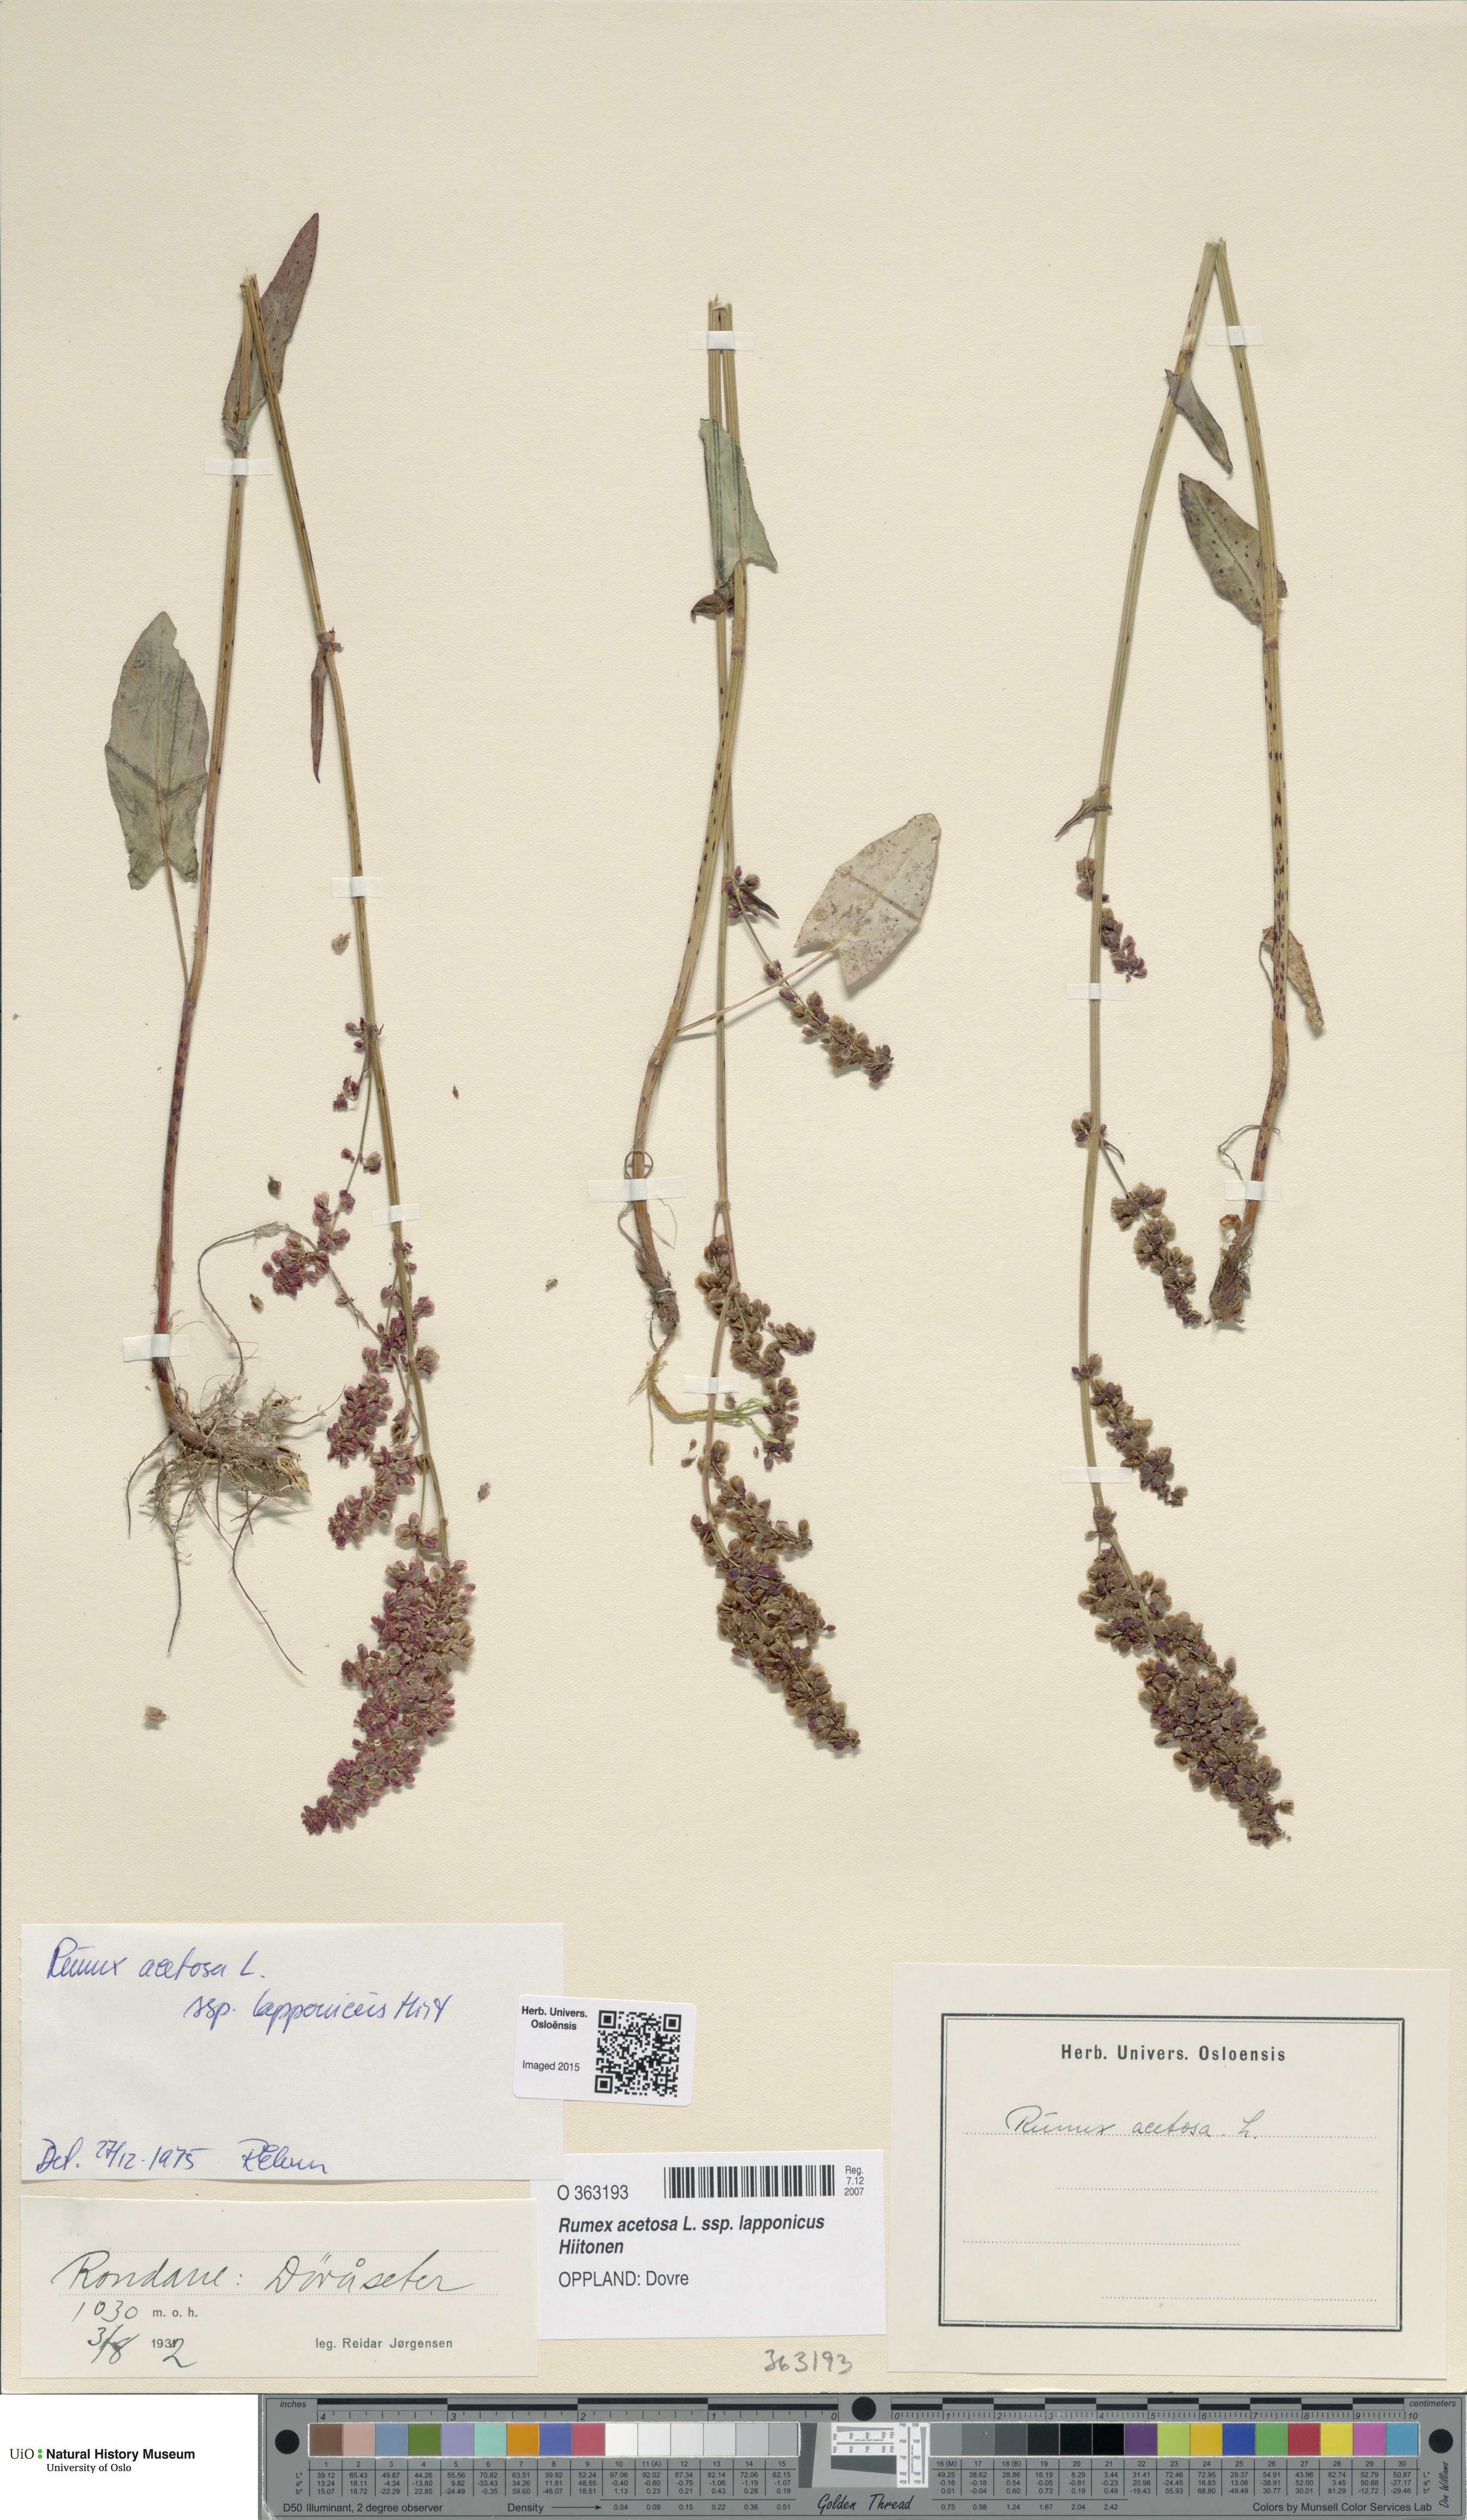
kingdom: Plantae
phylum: Tracheophyta
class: Magnoliopsida
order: Caryophyllales
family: Polygonaceae
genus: Rumex
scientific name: Rumex lapponicus
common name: Lapland mountain sorrel
